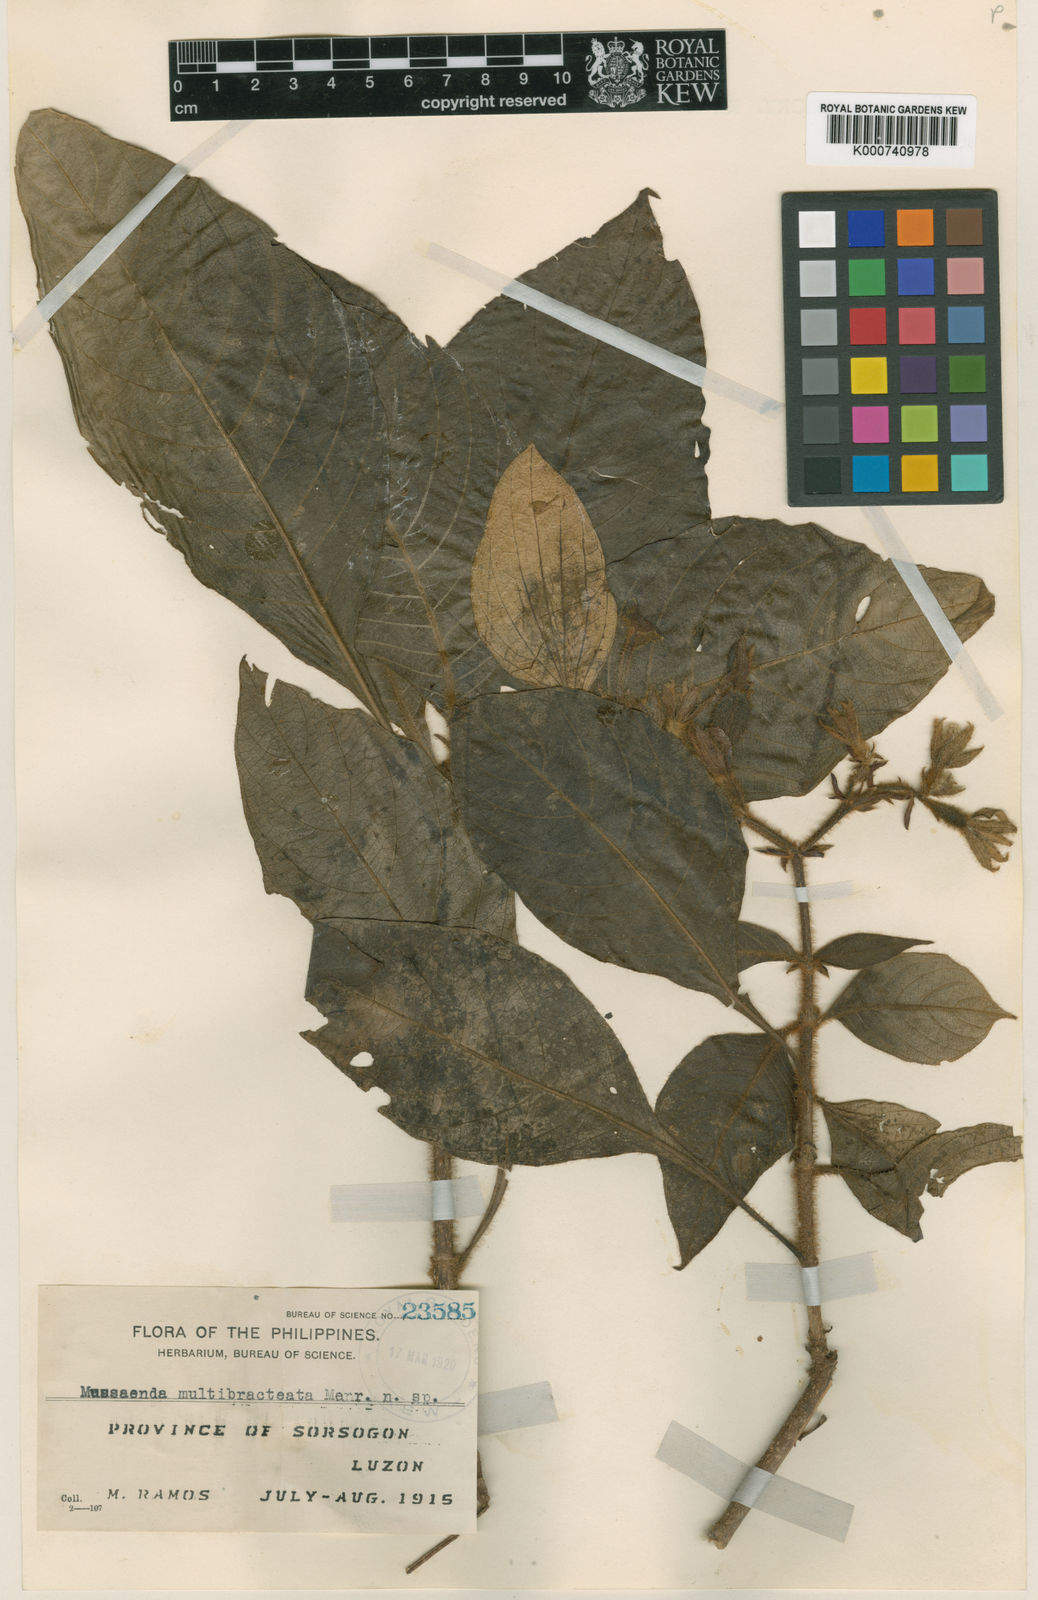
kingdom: Plantae
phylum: Tracheophyta
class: Magnoliopsida
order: Gentianales
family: Rubiaceae
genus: Mussaenda
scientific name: Mussaenda multibracteata
